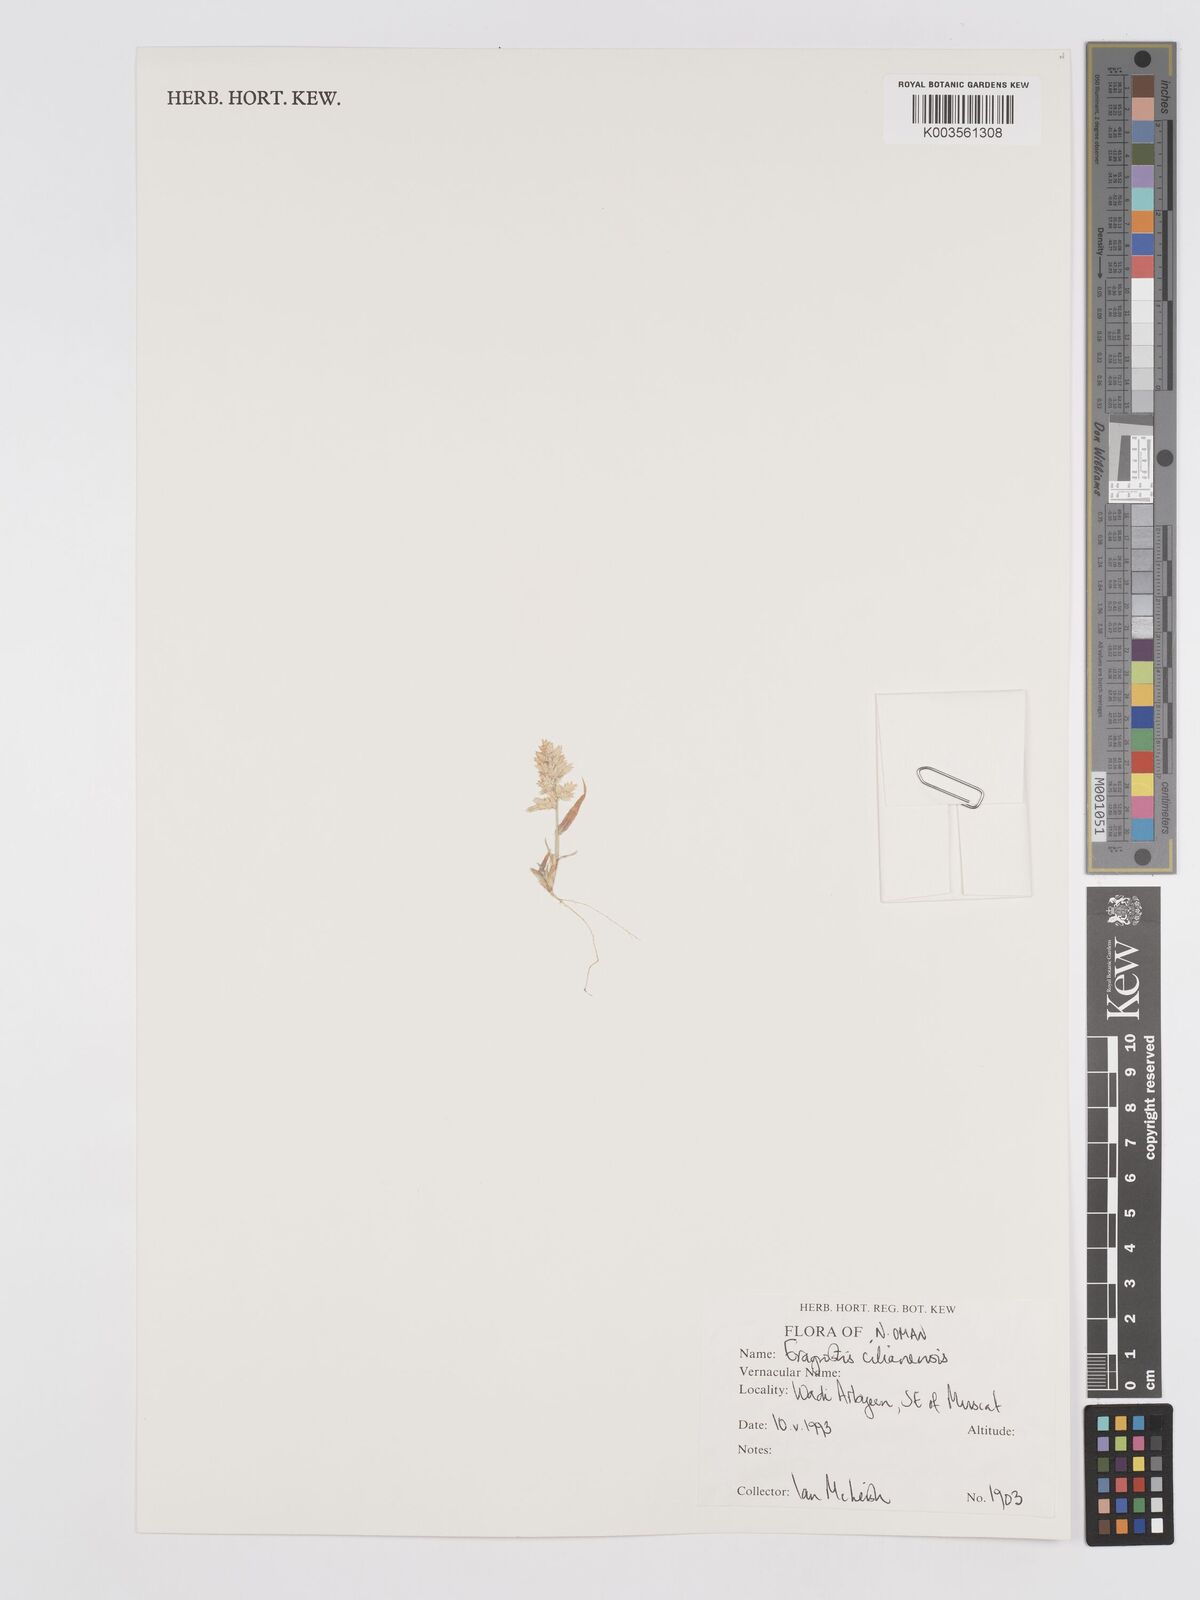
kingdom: Plantae
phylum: Tracheophyta
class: Liliopsida
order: Poales
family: Poaceae
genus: Eragrostis
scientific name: Eragrostis cilianensis
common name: Stinkgrass
